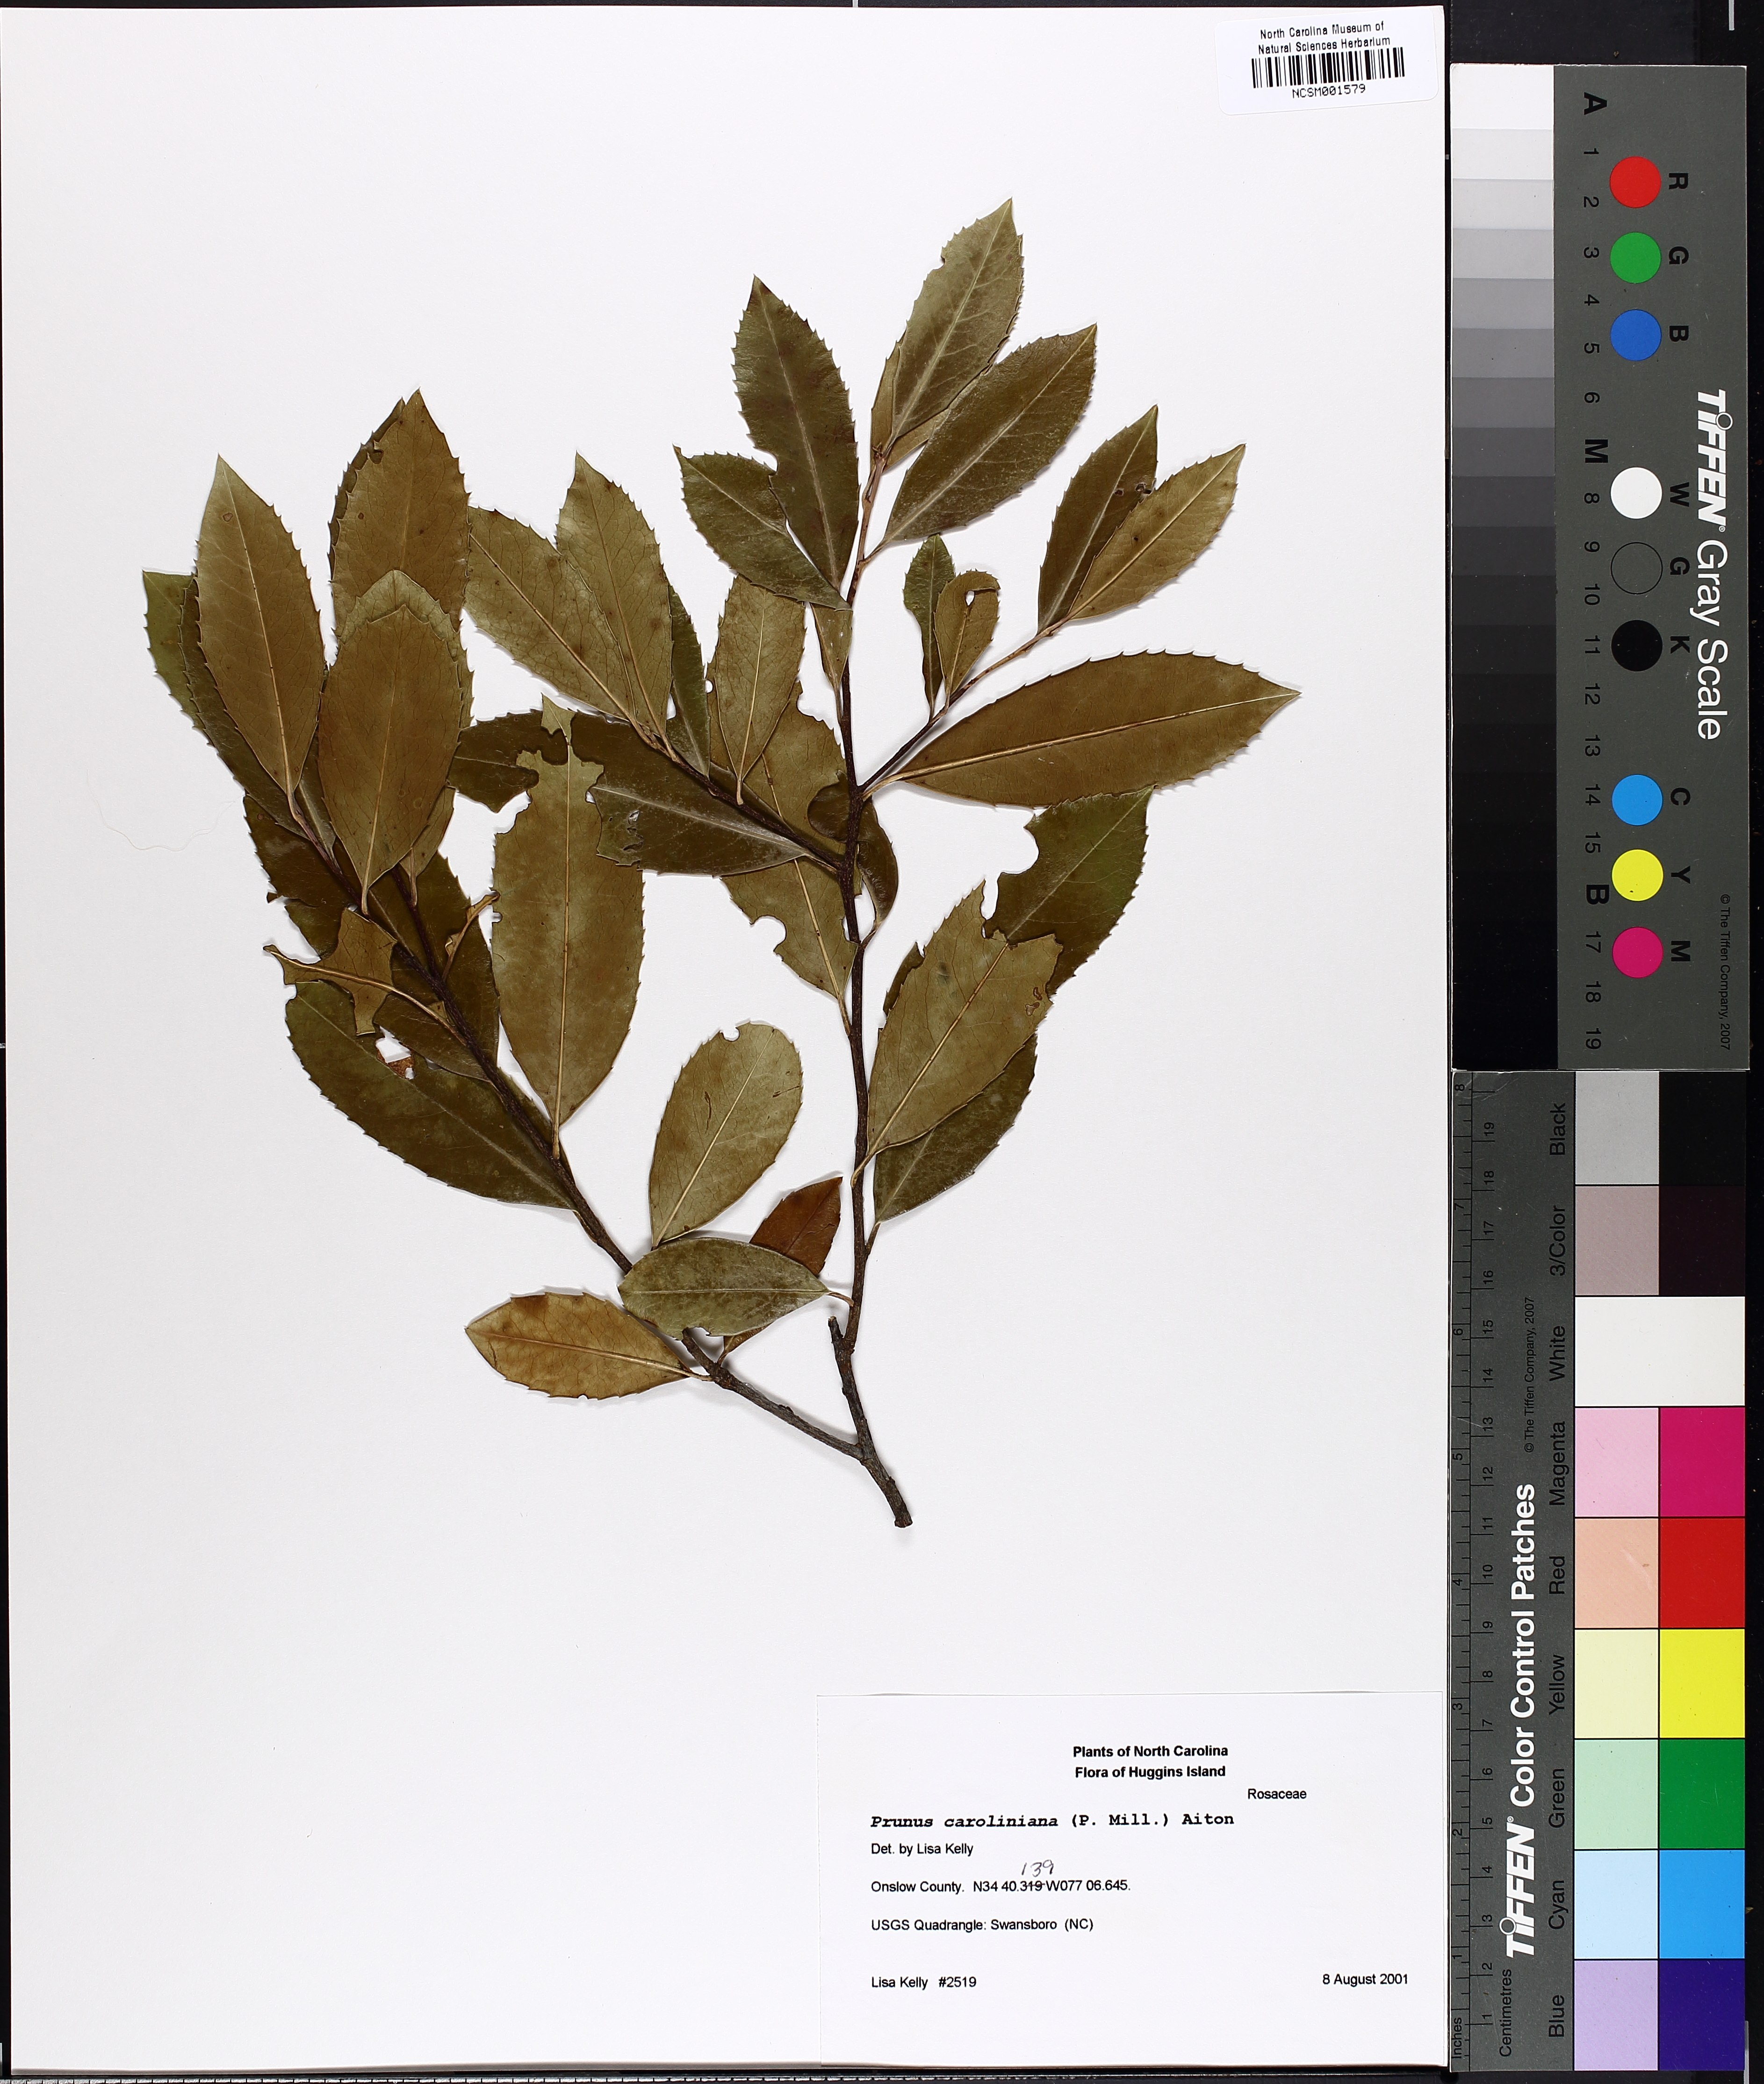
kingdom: Plantae
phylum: Tracheophyta
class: Magnoliopsida
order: Rosales
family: Rosaceae
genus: Prunus
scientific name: Prunus caroliniana
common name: Carolina laurel cherry
